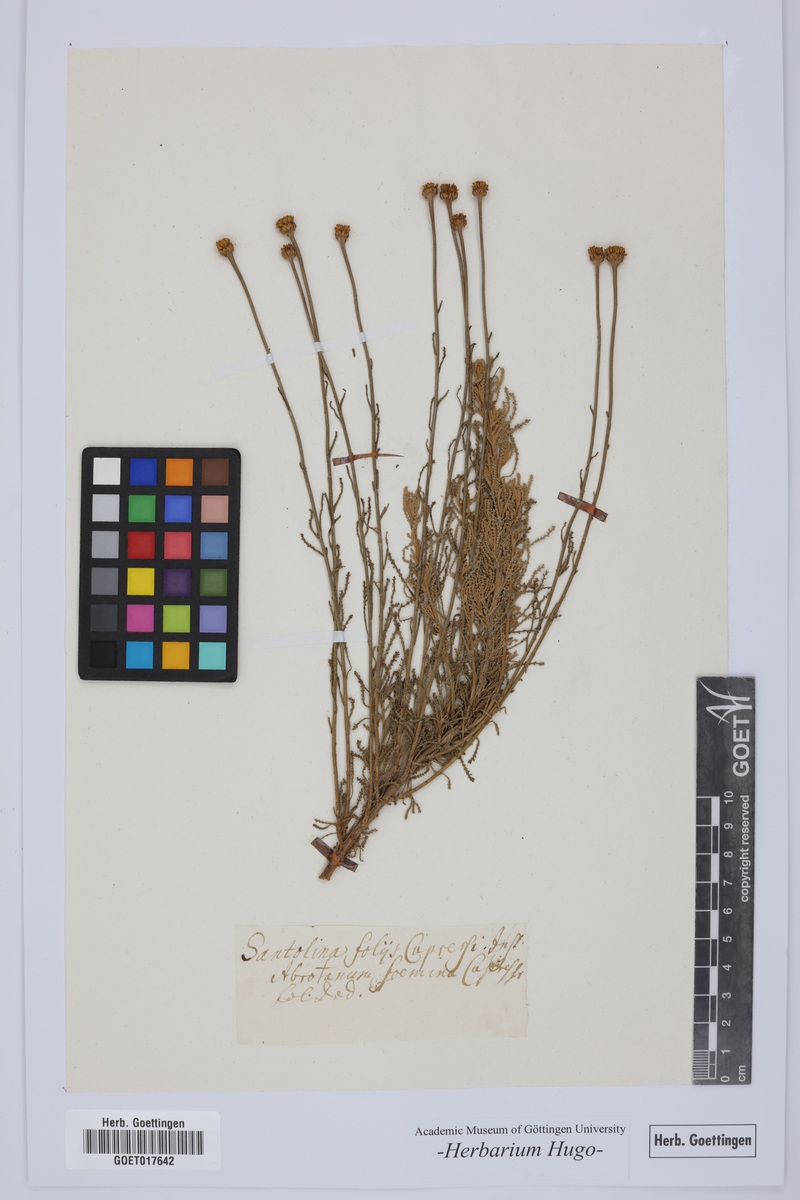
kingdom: Plantae
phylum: Tracheophyta
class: Magnoliopsida
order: Asterales
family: Asteraceae
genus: Santolina
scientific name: Santolina chamaecyparissus
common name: Lavender-cotton
